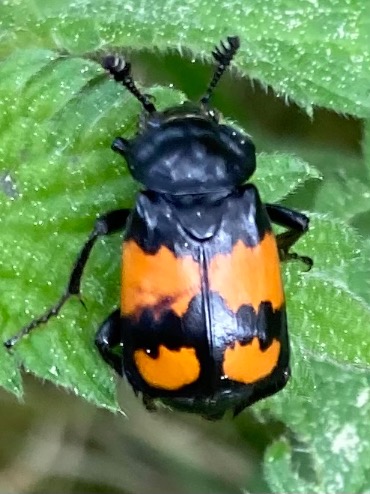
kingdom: Animalia
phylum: Arthropoda
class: Insecta
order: Coleoptera
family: Staphylinidae
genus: Nicrophorus
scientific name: Nicrophorus vespilloides
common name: Sortkøllet ådselgraver
